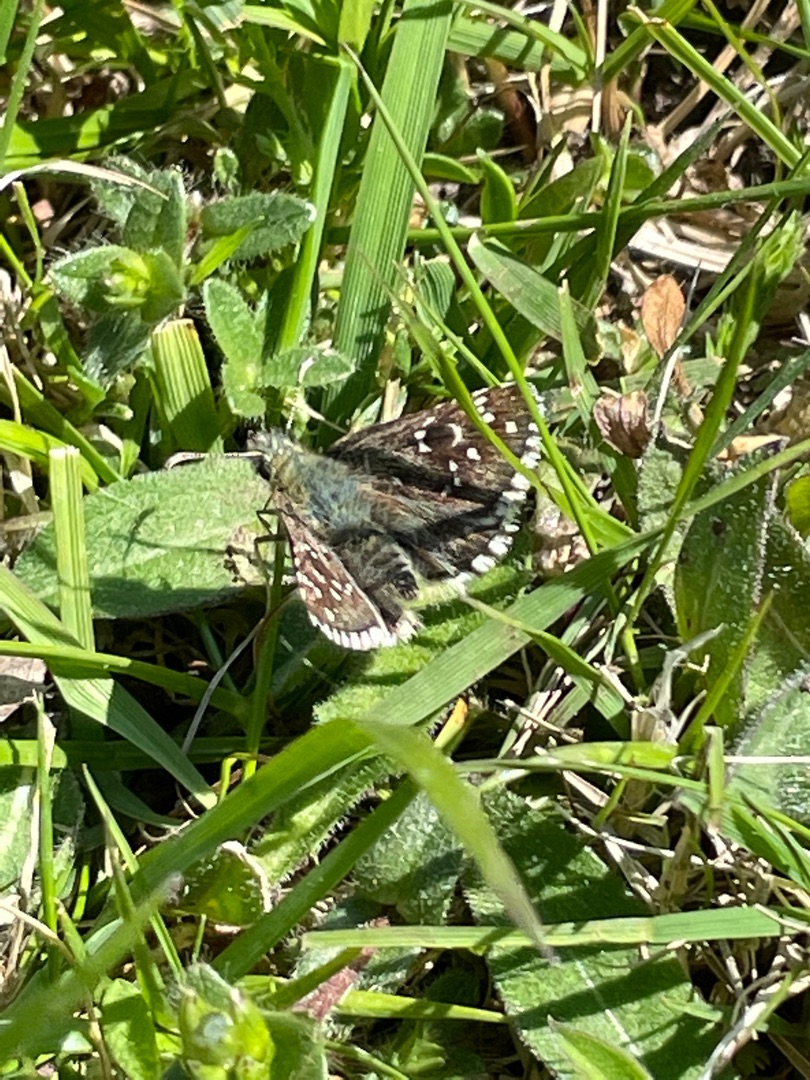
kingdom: Animalia
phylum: Arthropoda
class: Insecta
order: Lepidoptera
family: Hesperiidae
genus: Pyrgus
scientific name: Pyrgus armoricanus
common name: Fransk bredpande
